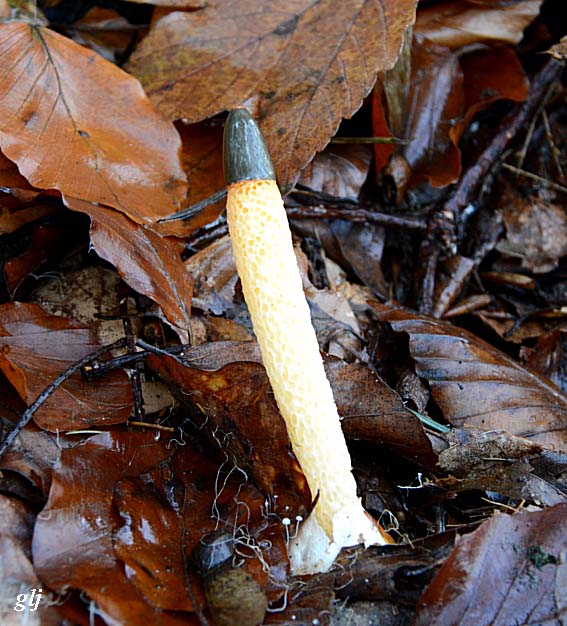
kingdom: Fungi
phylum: Basidiomycota
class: Agaricomycetes
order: Phallales
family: Phallaceae
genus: Mutinus
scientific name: Mutinus caninus
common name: hunde-stinksvamp
